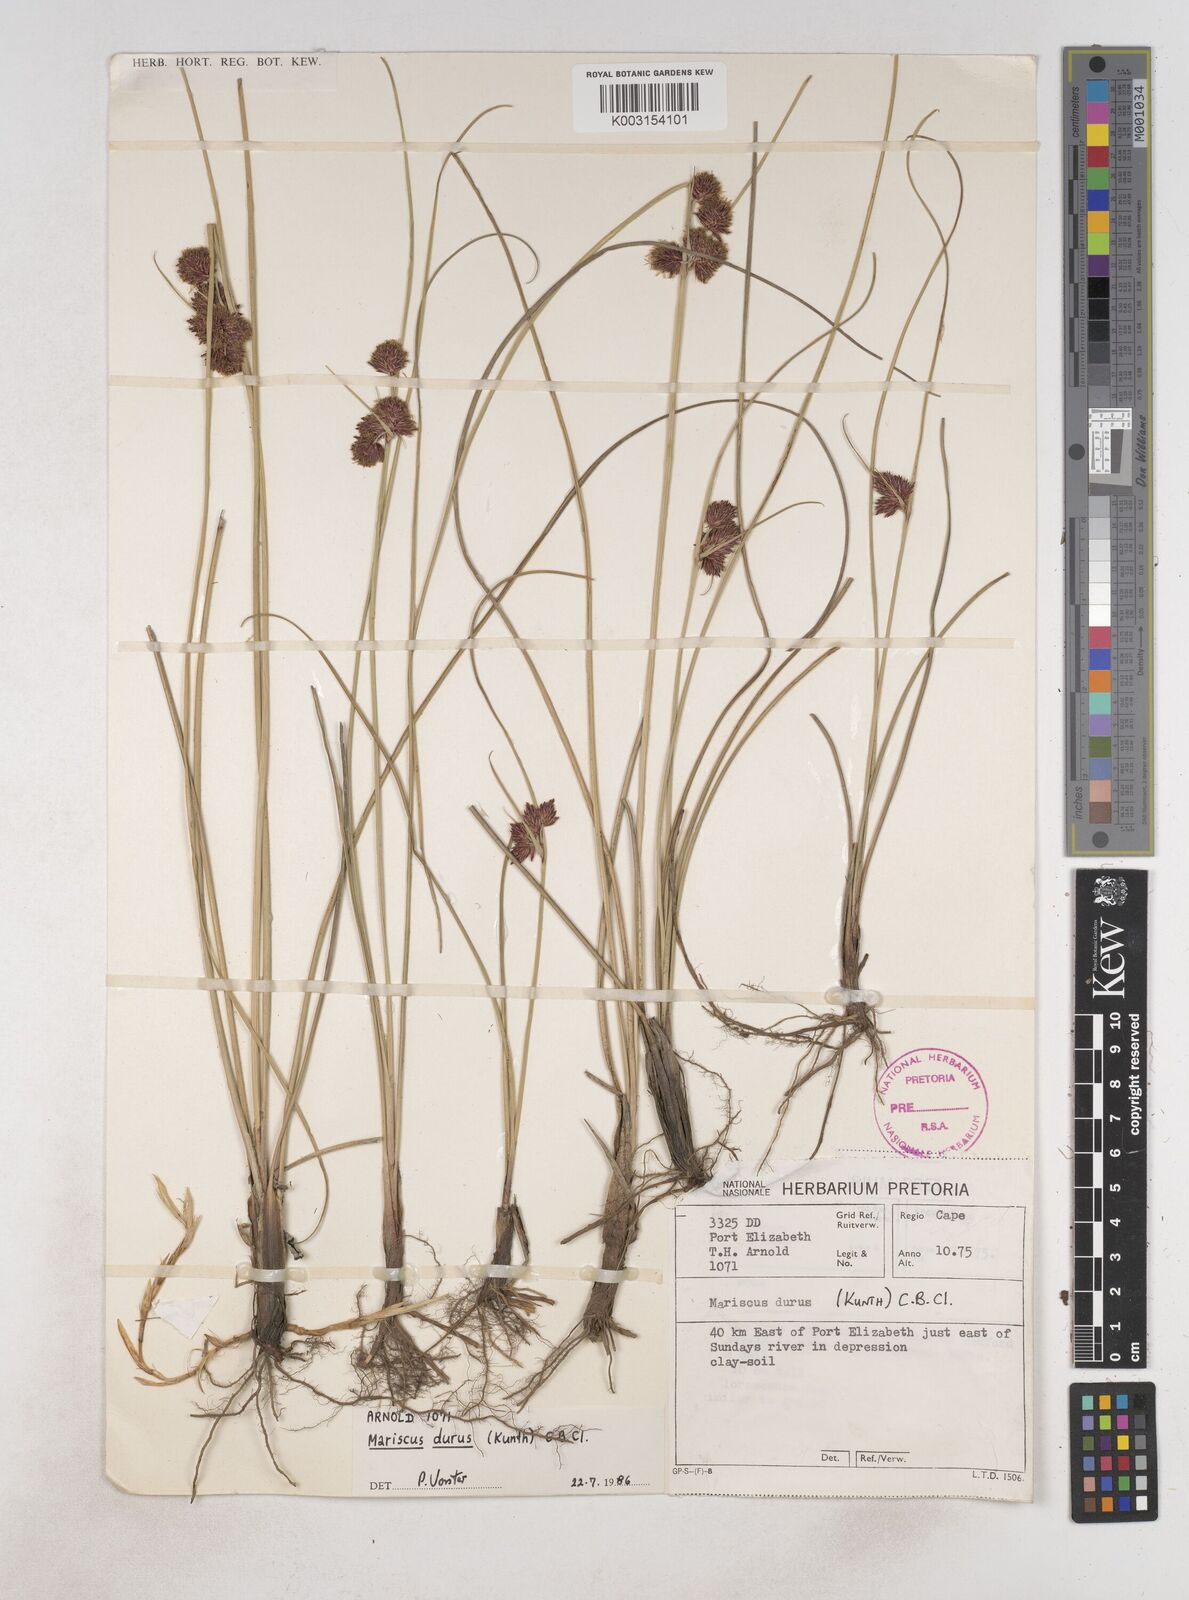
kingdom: Plantae
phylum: Tracheophyta
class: Liliopsida
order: Poales
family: Cyperaceae
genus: Cyperus
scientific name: Cyperus durus
